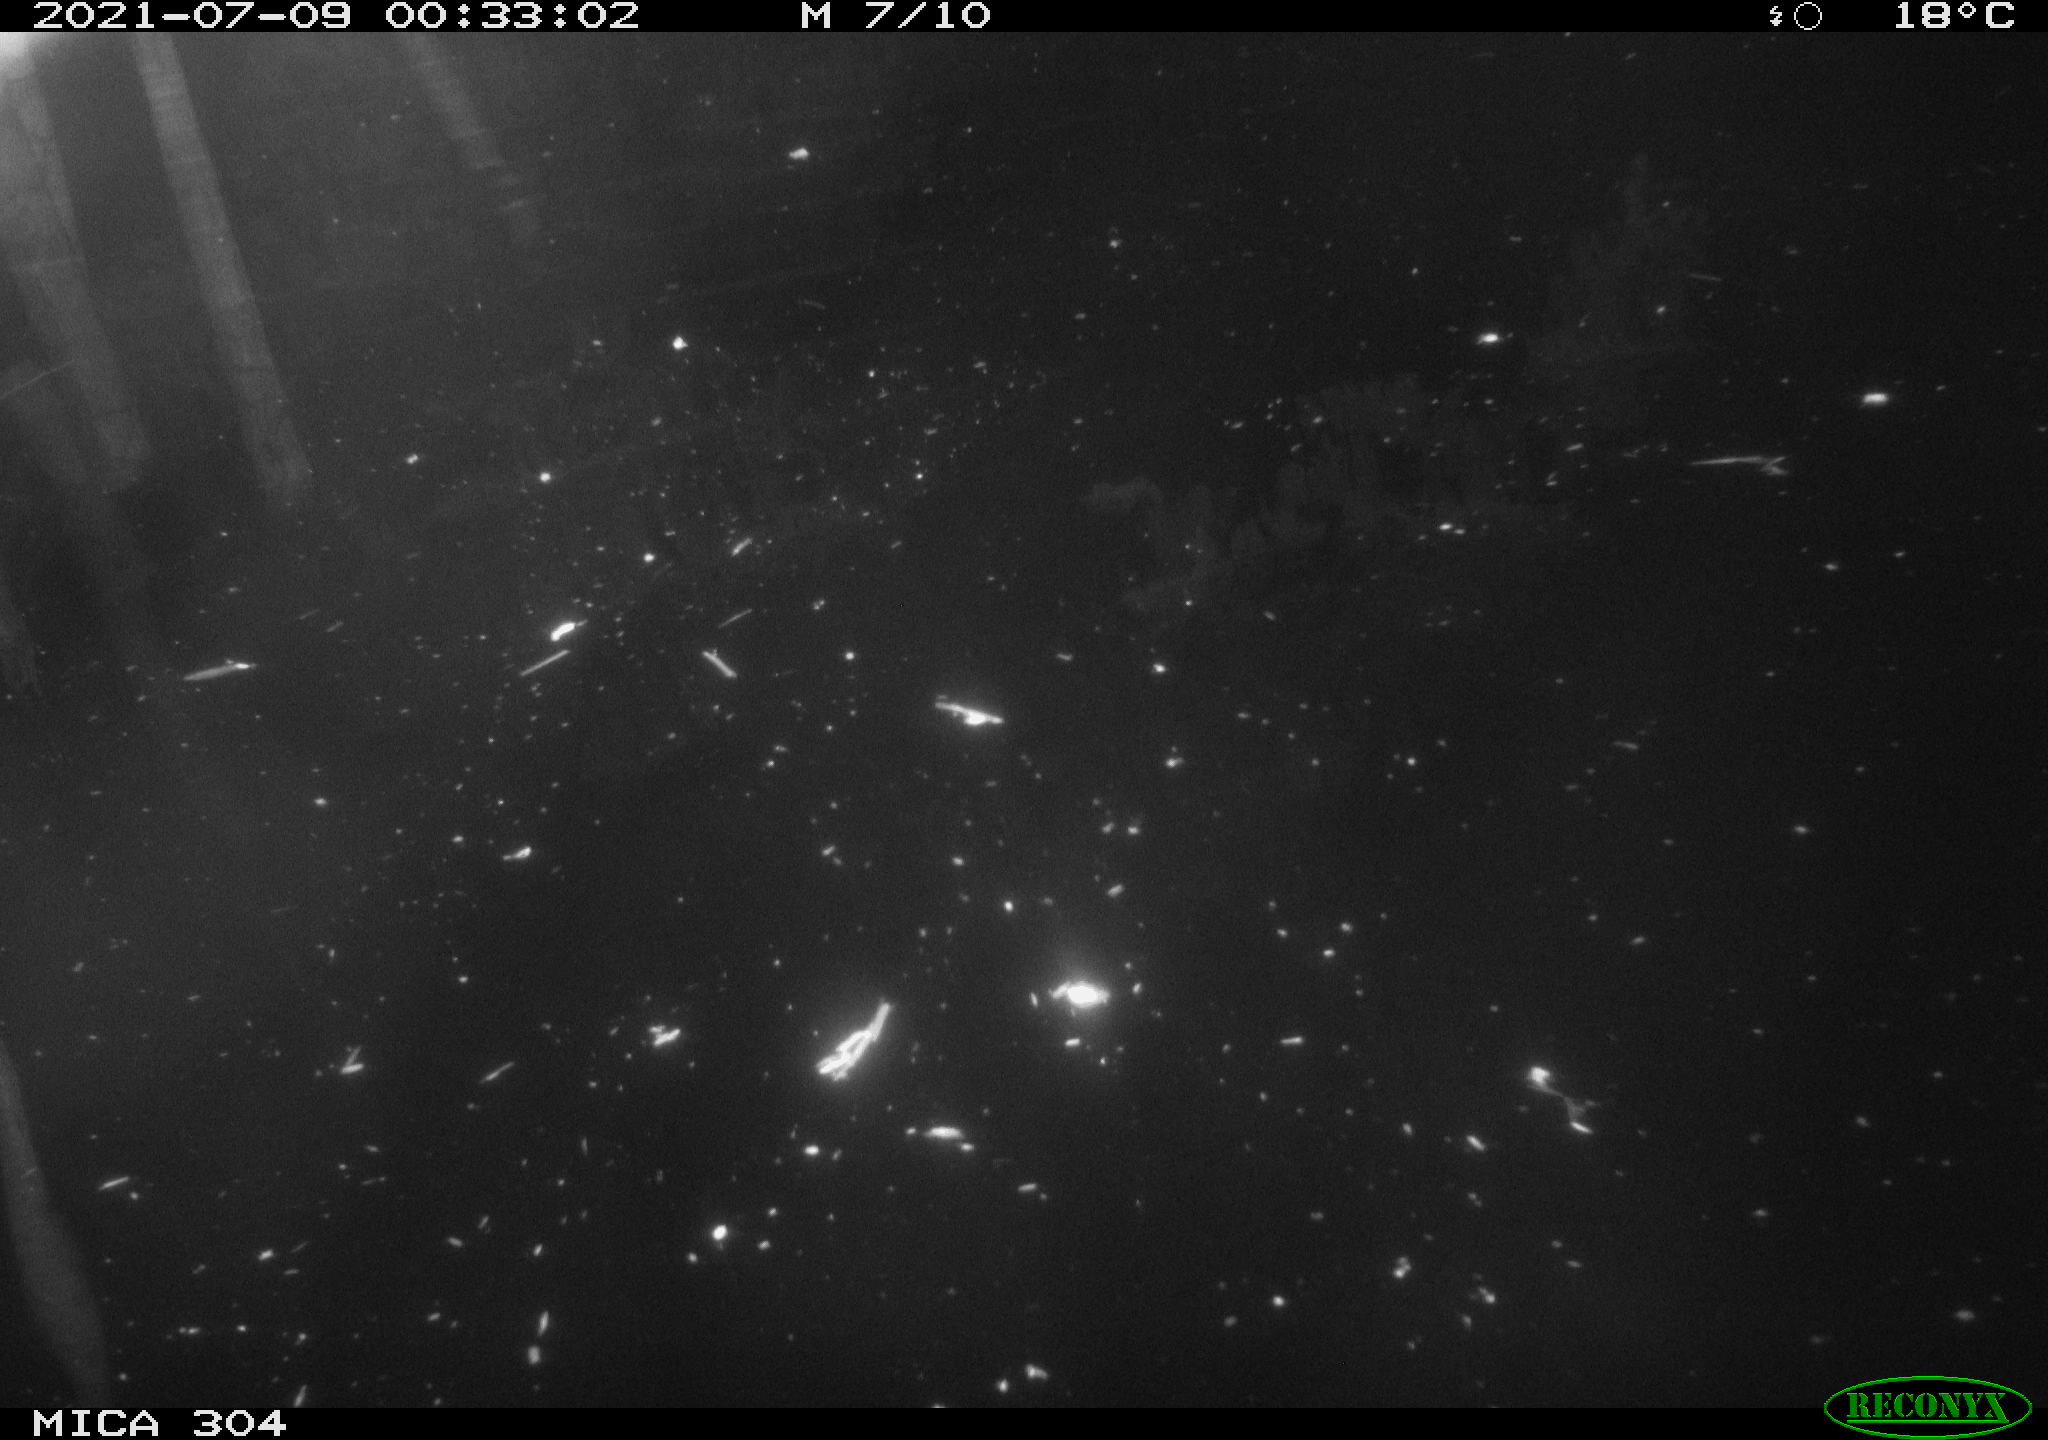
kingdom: Animalia
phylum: Chordata
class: Aves
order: Anseriformes
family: Anatidae
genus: Anas
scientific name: Anas platyrhynchos
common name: Mallard
